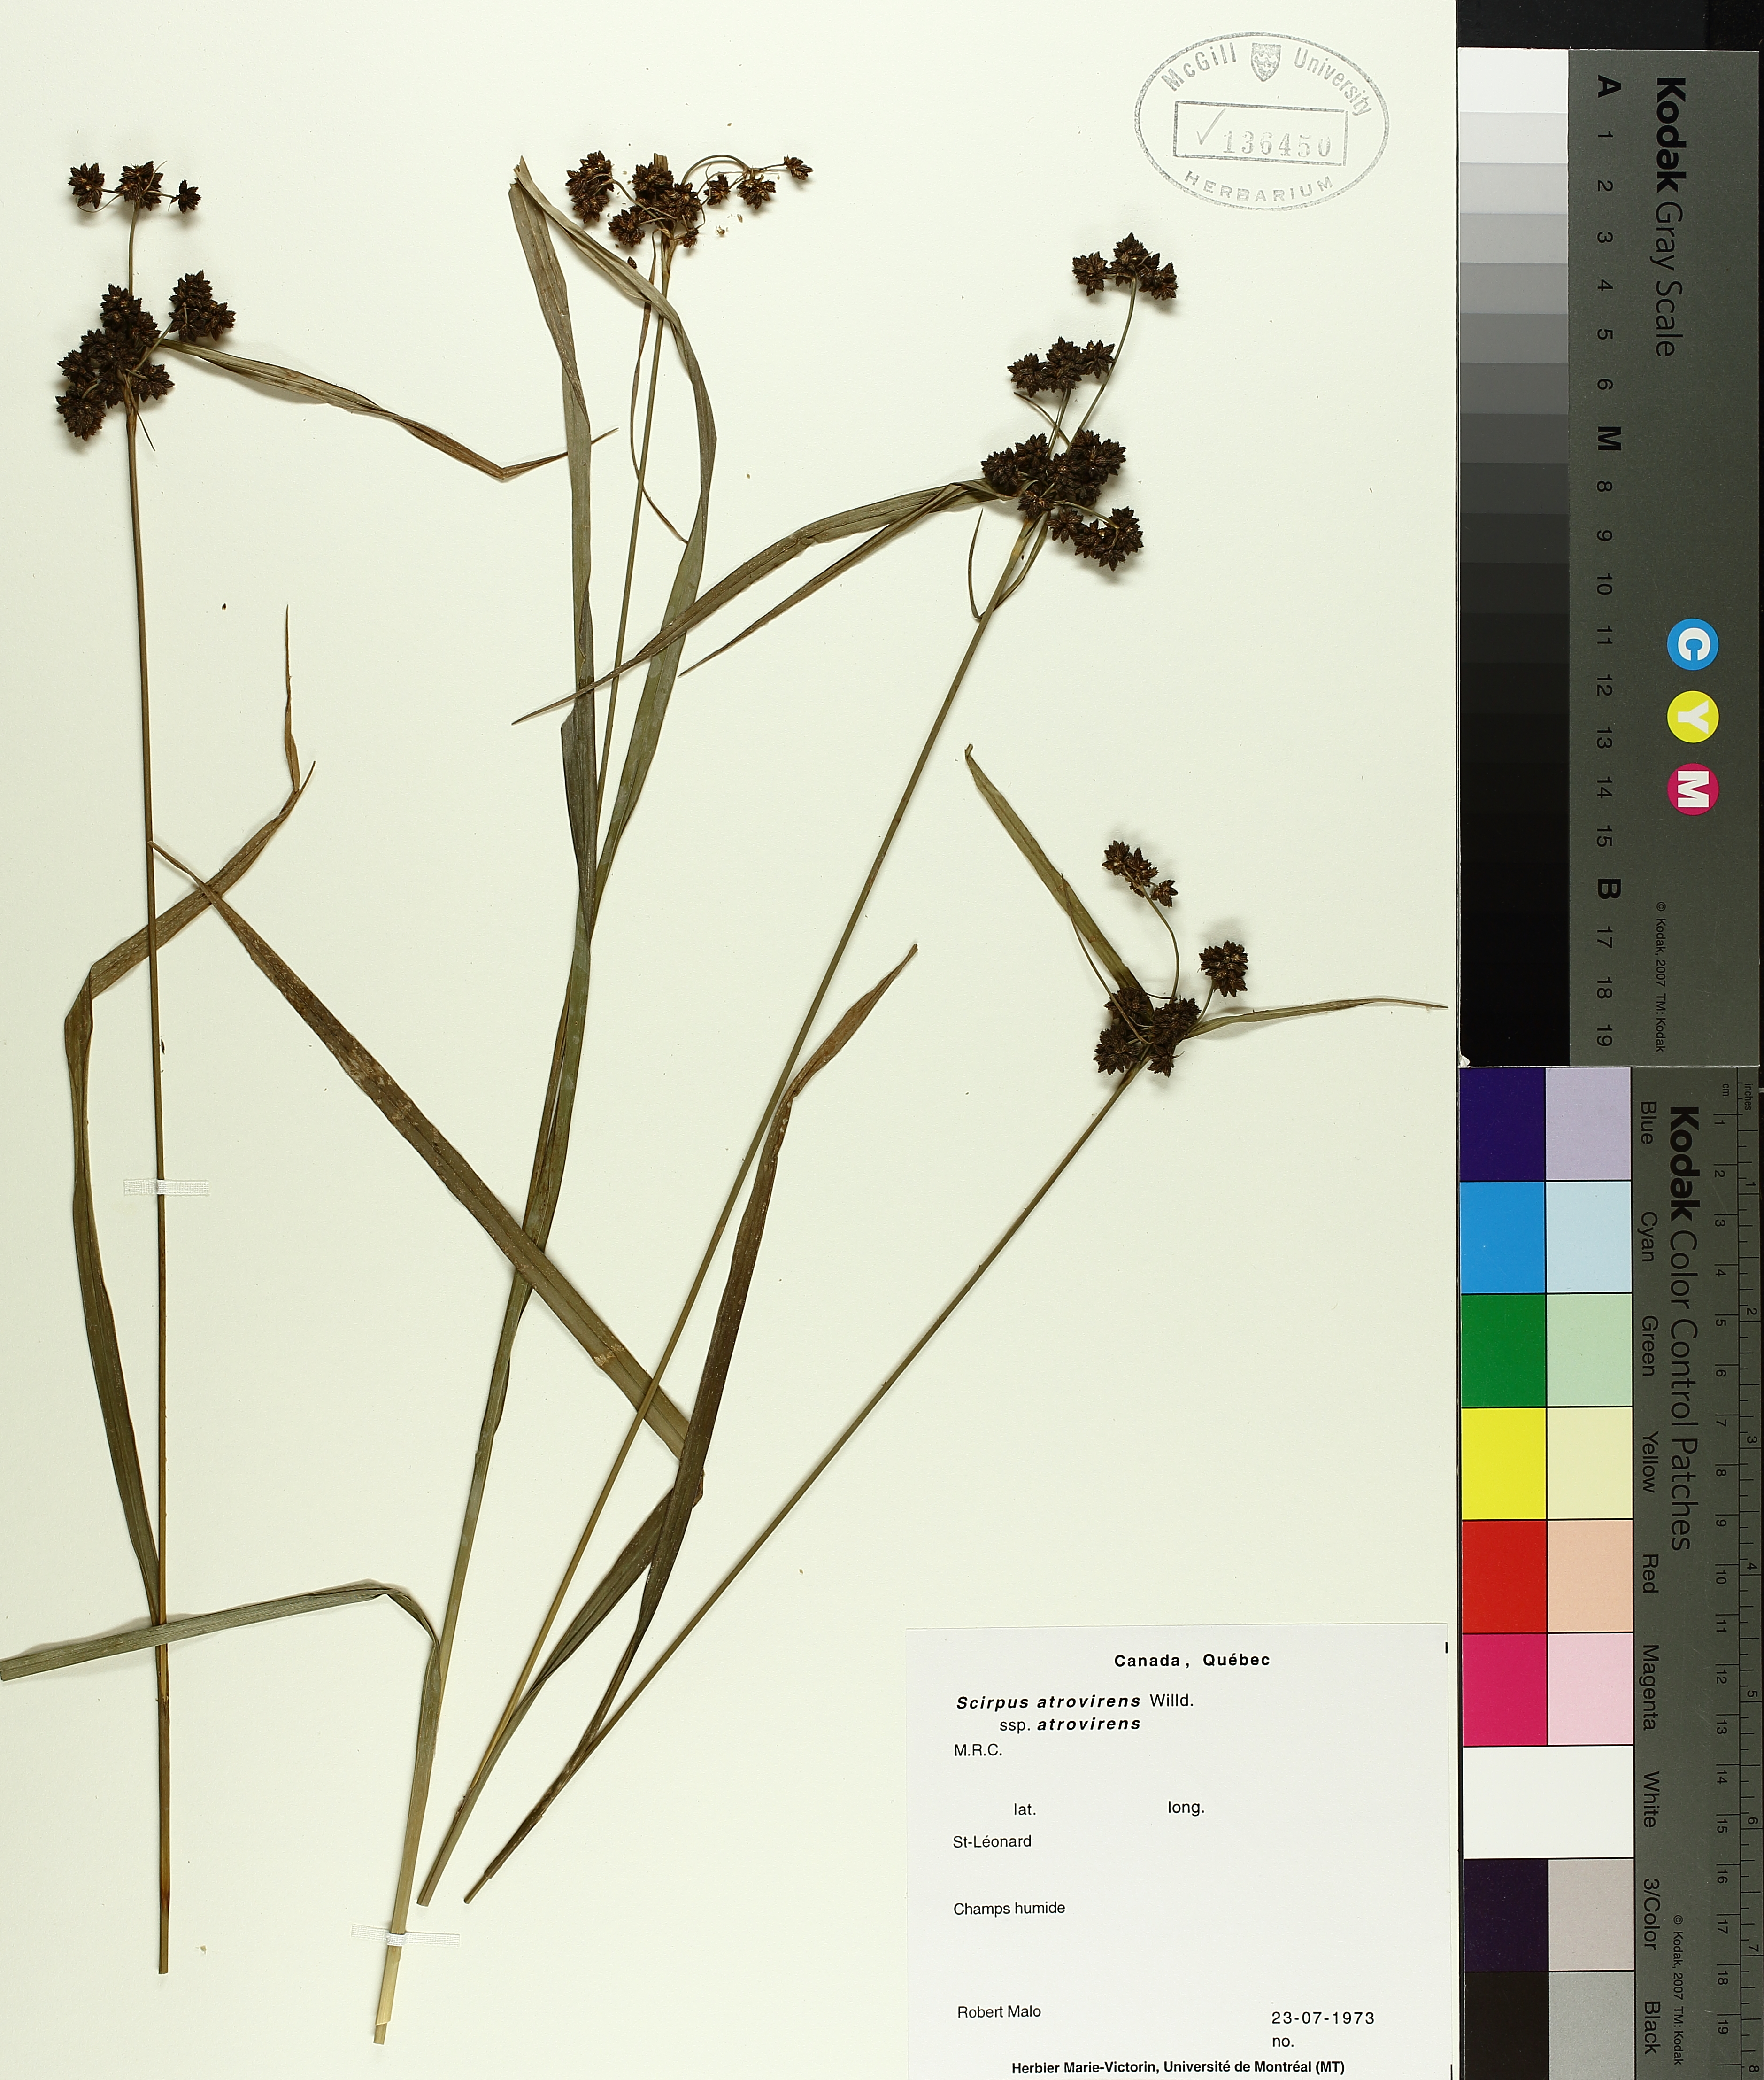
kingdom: Plantae
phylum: Tracheophyta
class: Liliopsida
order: Poales
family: Cyperaceae
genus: Scirpus
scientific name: Scirpus atrovirens
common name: Black bulrush
